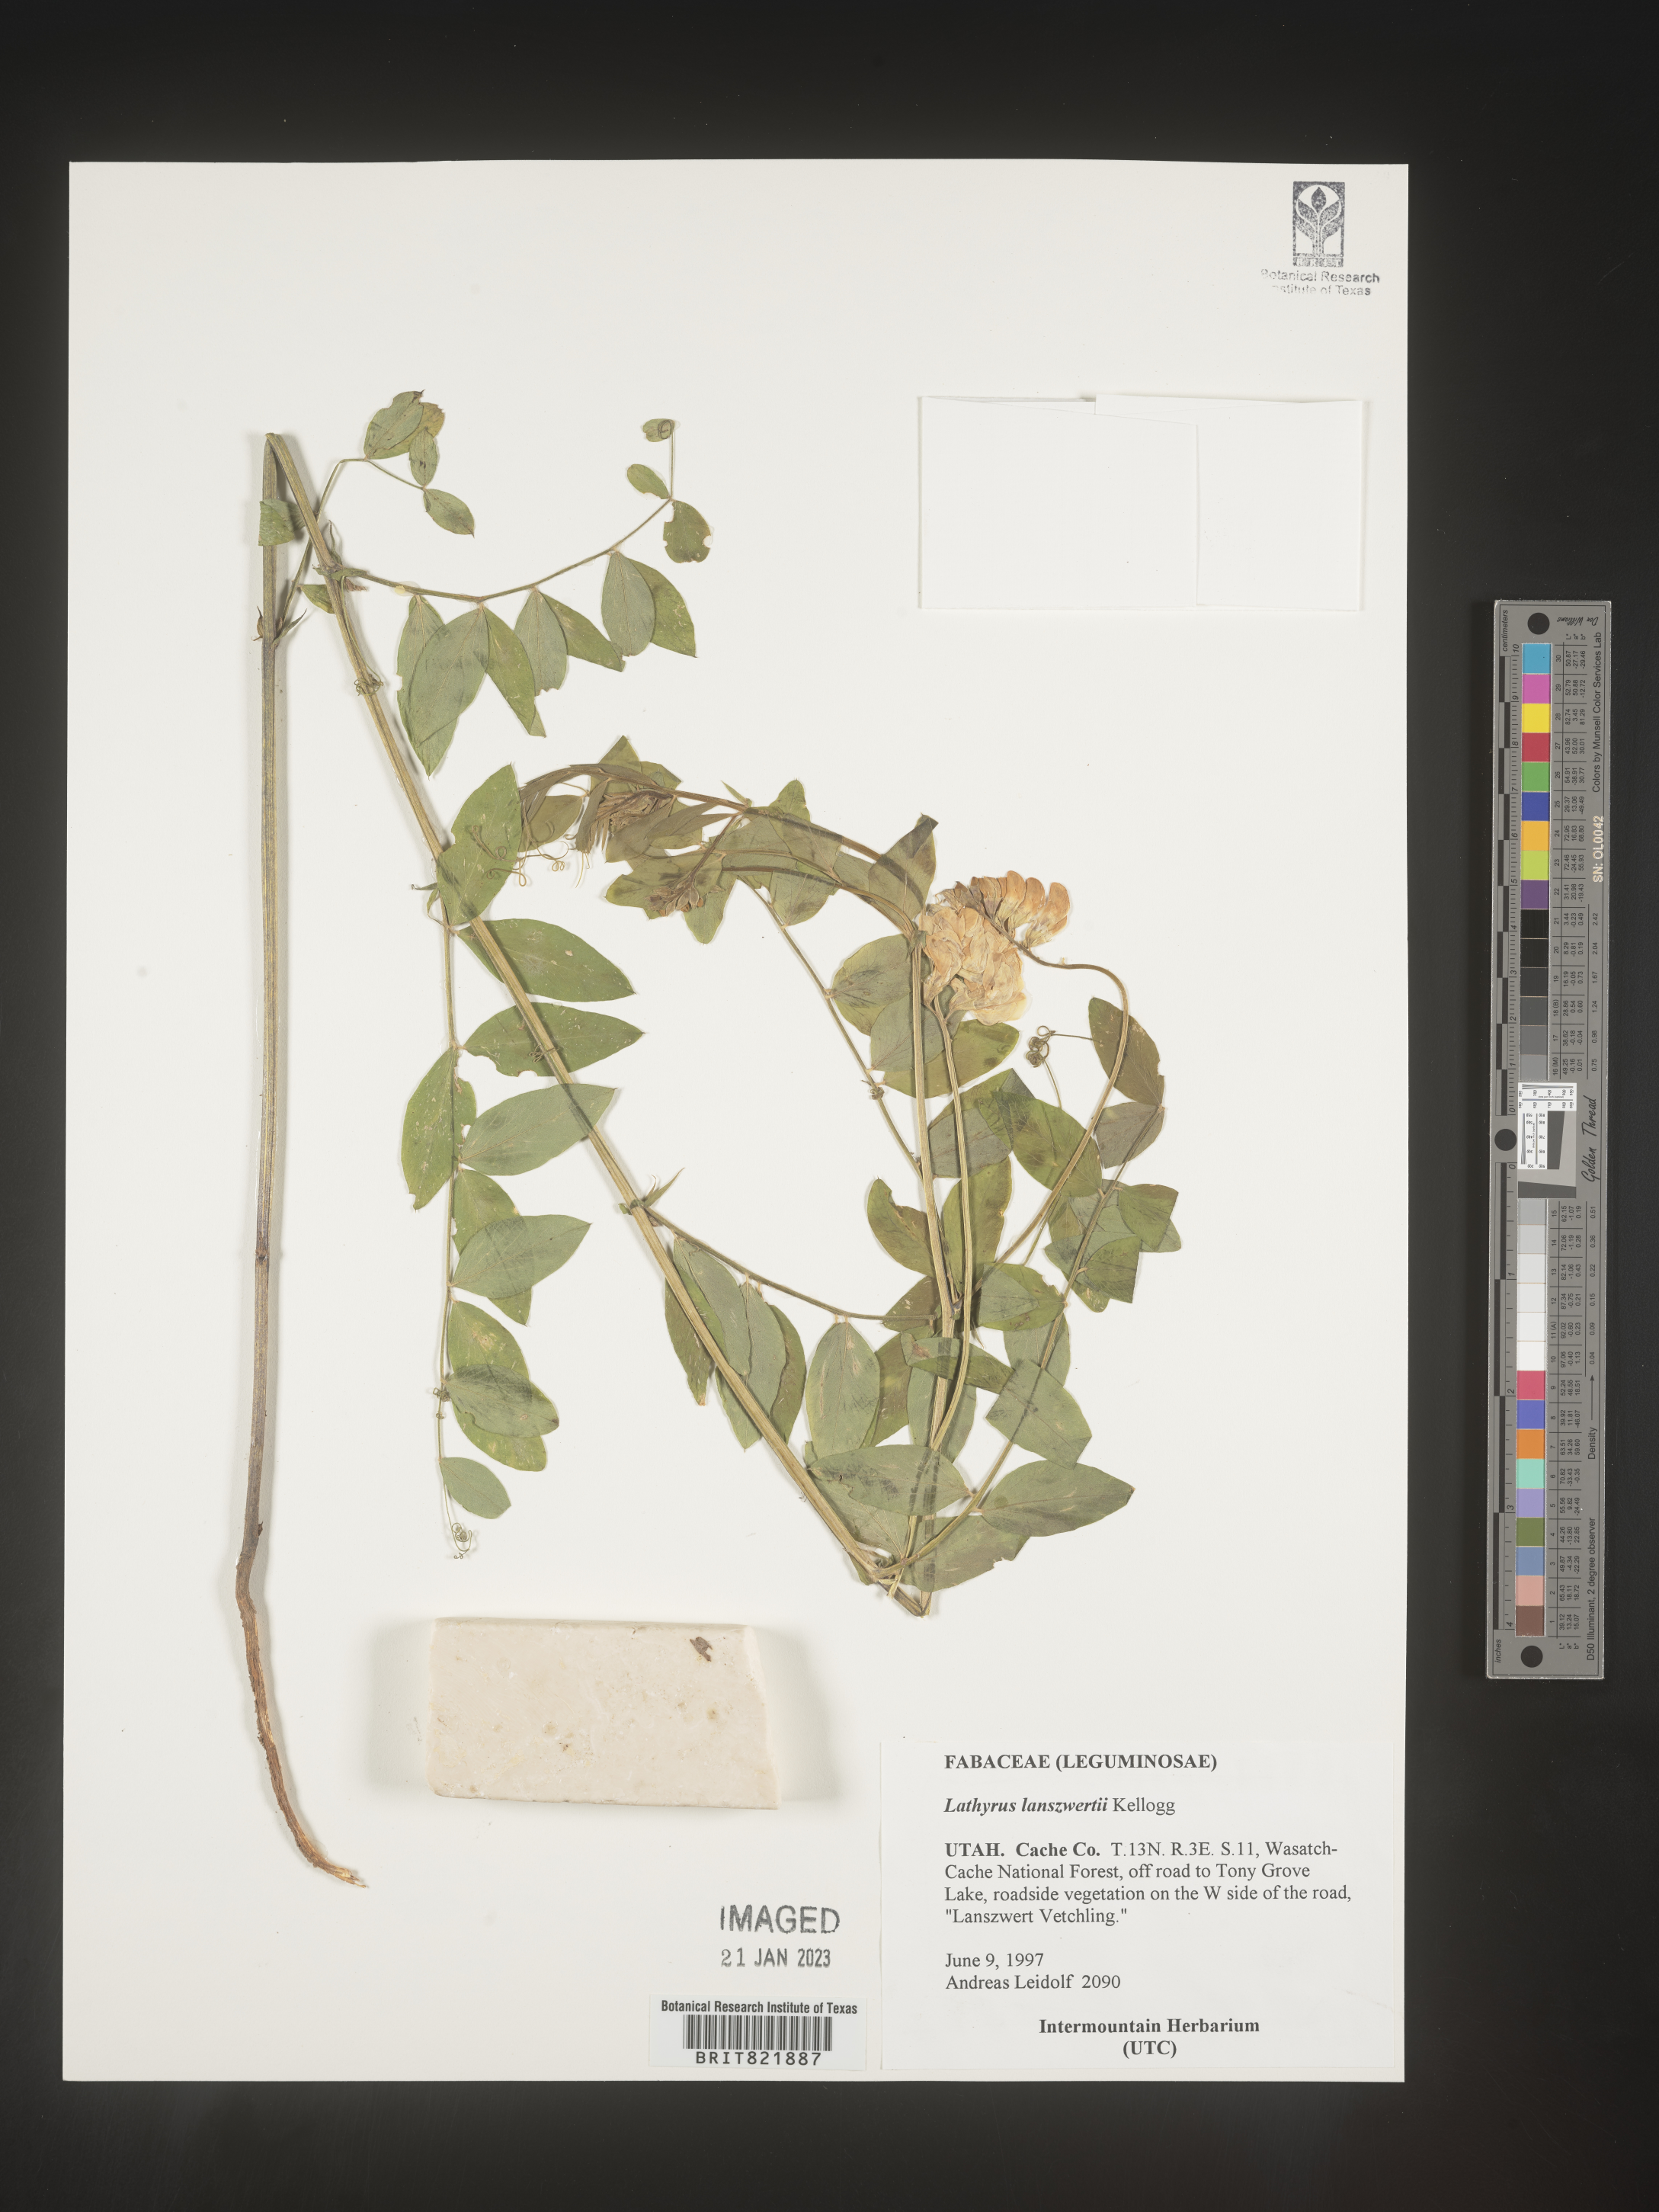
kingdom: Plantae
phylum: Tracheophyta
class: Magnoliopsida
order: Fabales
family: Fabaceae
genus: Lathyrus
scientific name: Lathyrus
